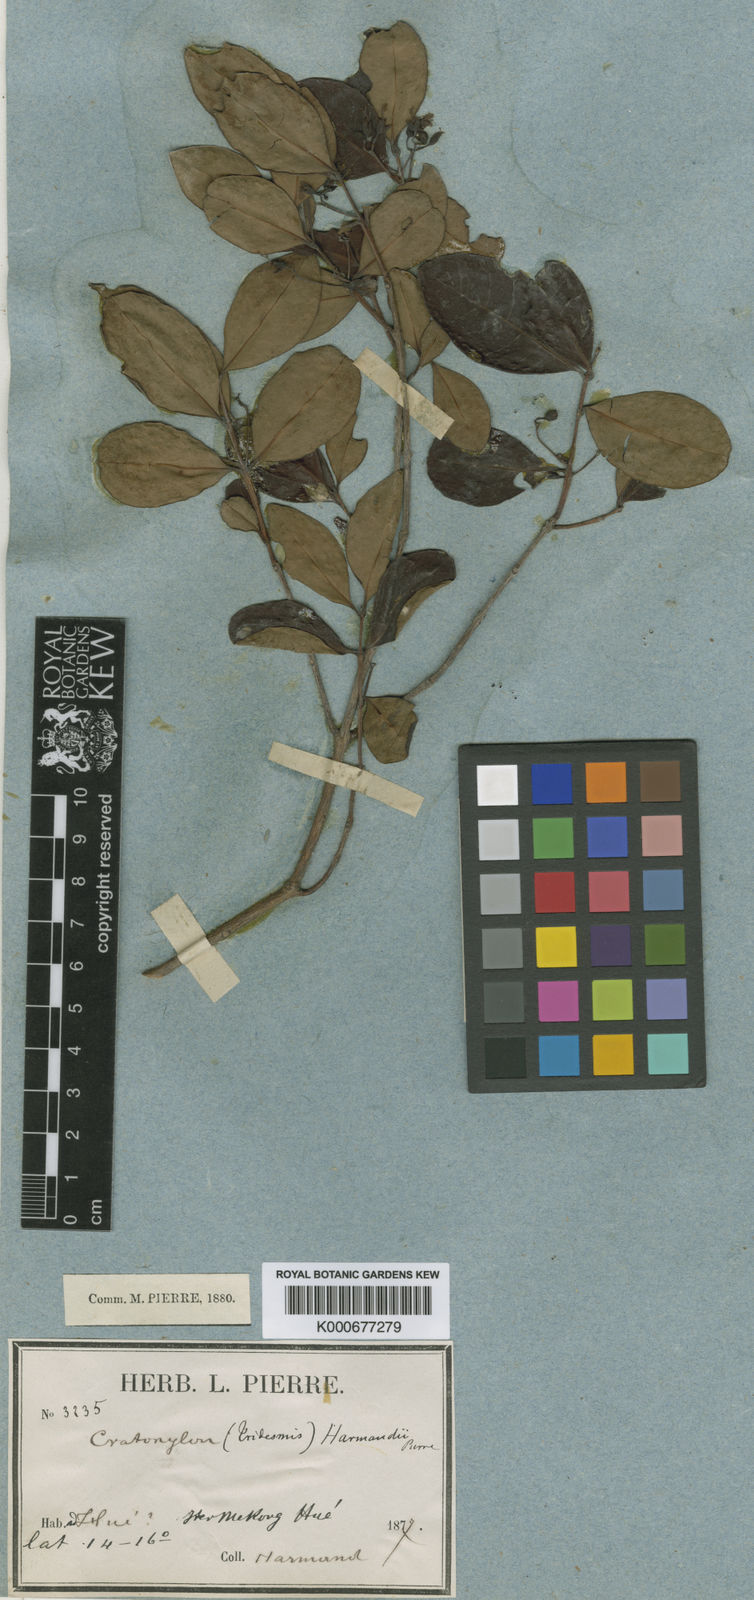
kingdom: Plantae
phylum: Tracheophyta
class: Magnoliopsida
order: Malpighiales
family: Hypericaceae
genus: Cratoxylum
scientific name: Cratoxylum maingayi
